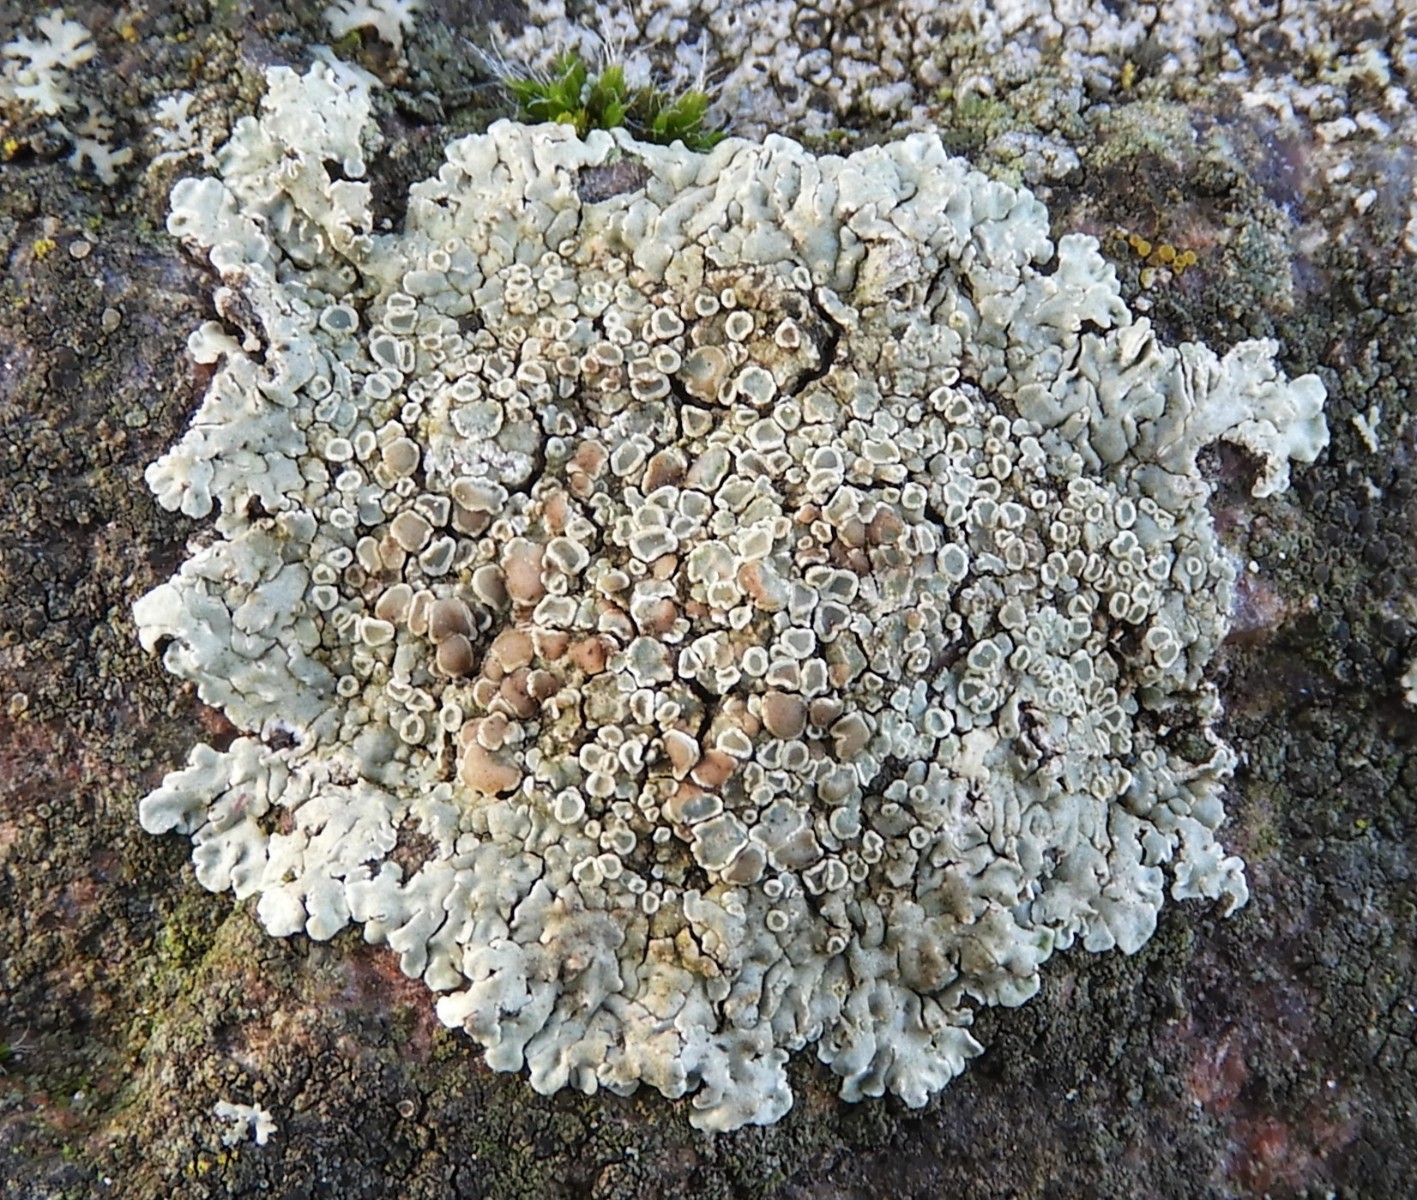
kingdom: Fungi
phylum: Ascomycota
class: Lecanoromycetes
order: Lecanorales
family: Lecanoraceae
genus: Protoparmeliopsis
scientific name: Protoparmeliopsis muralis
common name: randfliget kantskivelav
